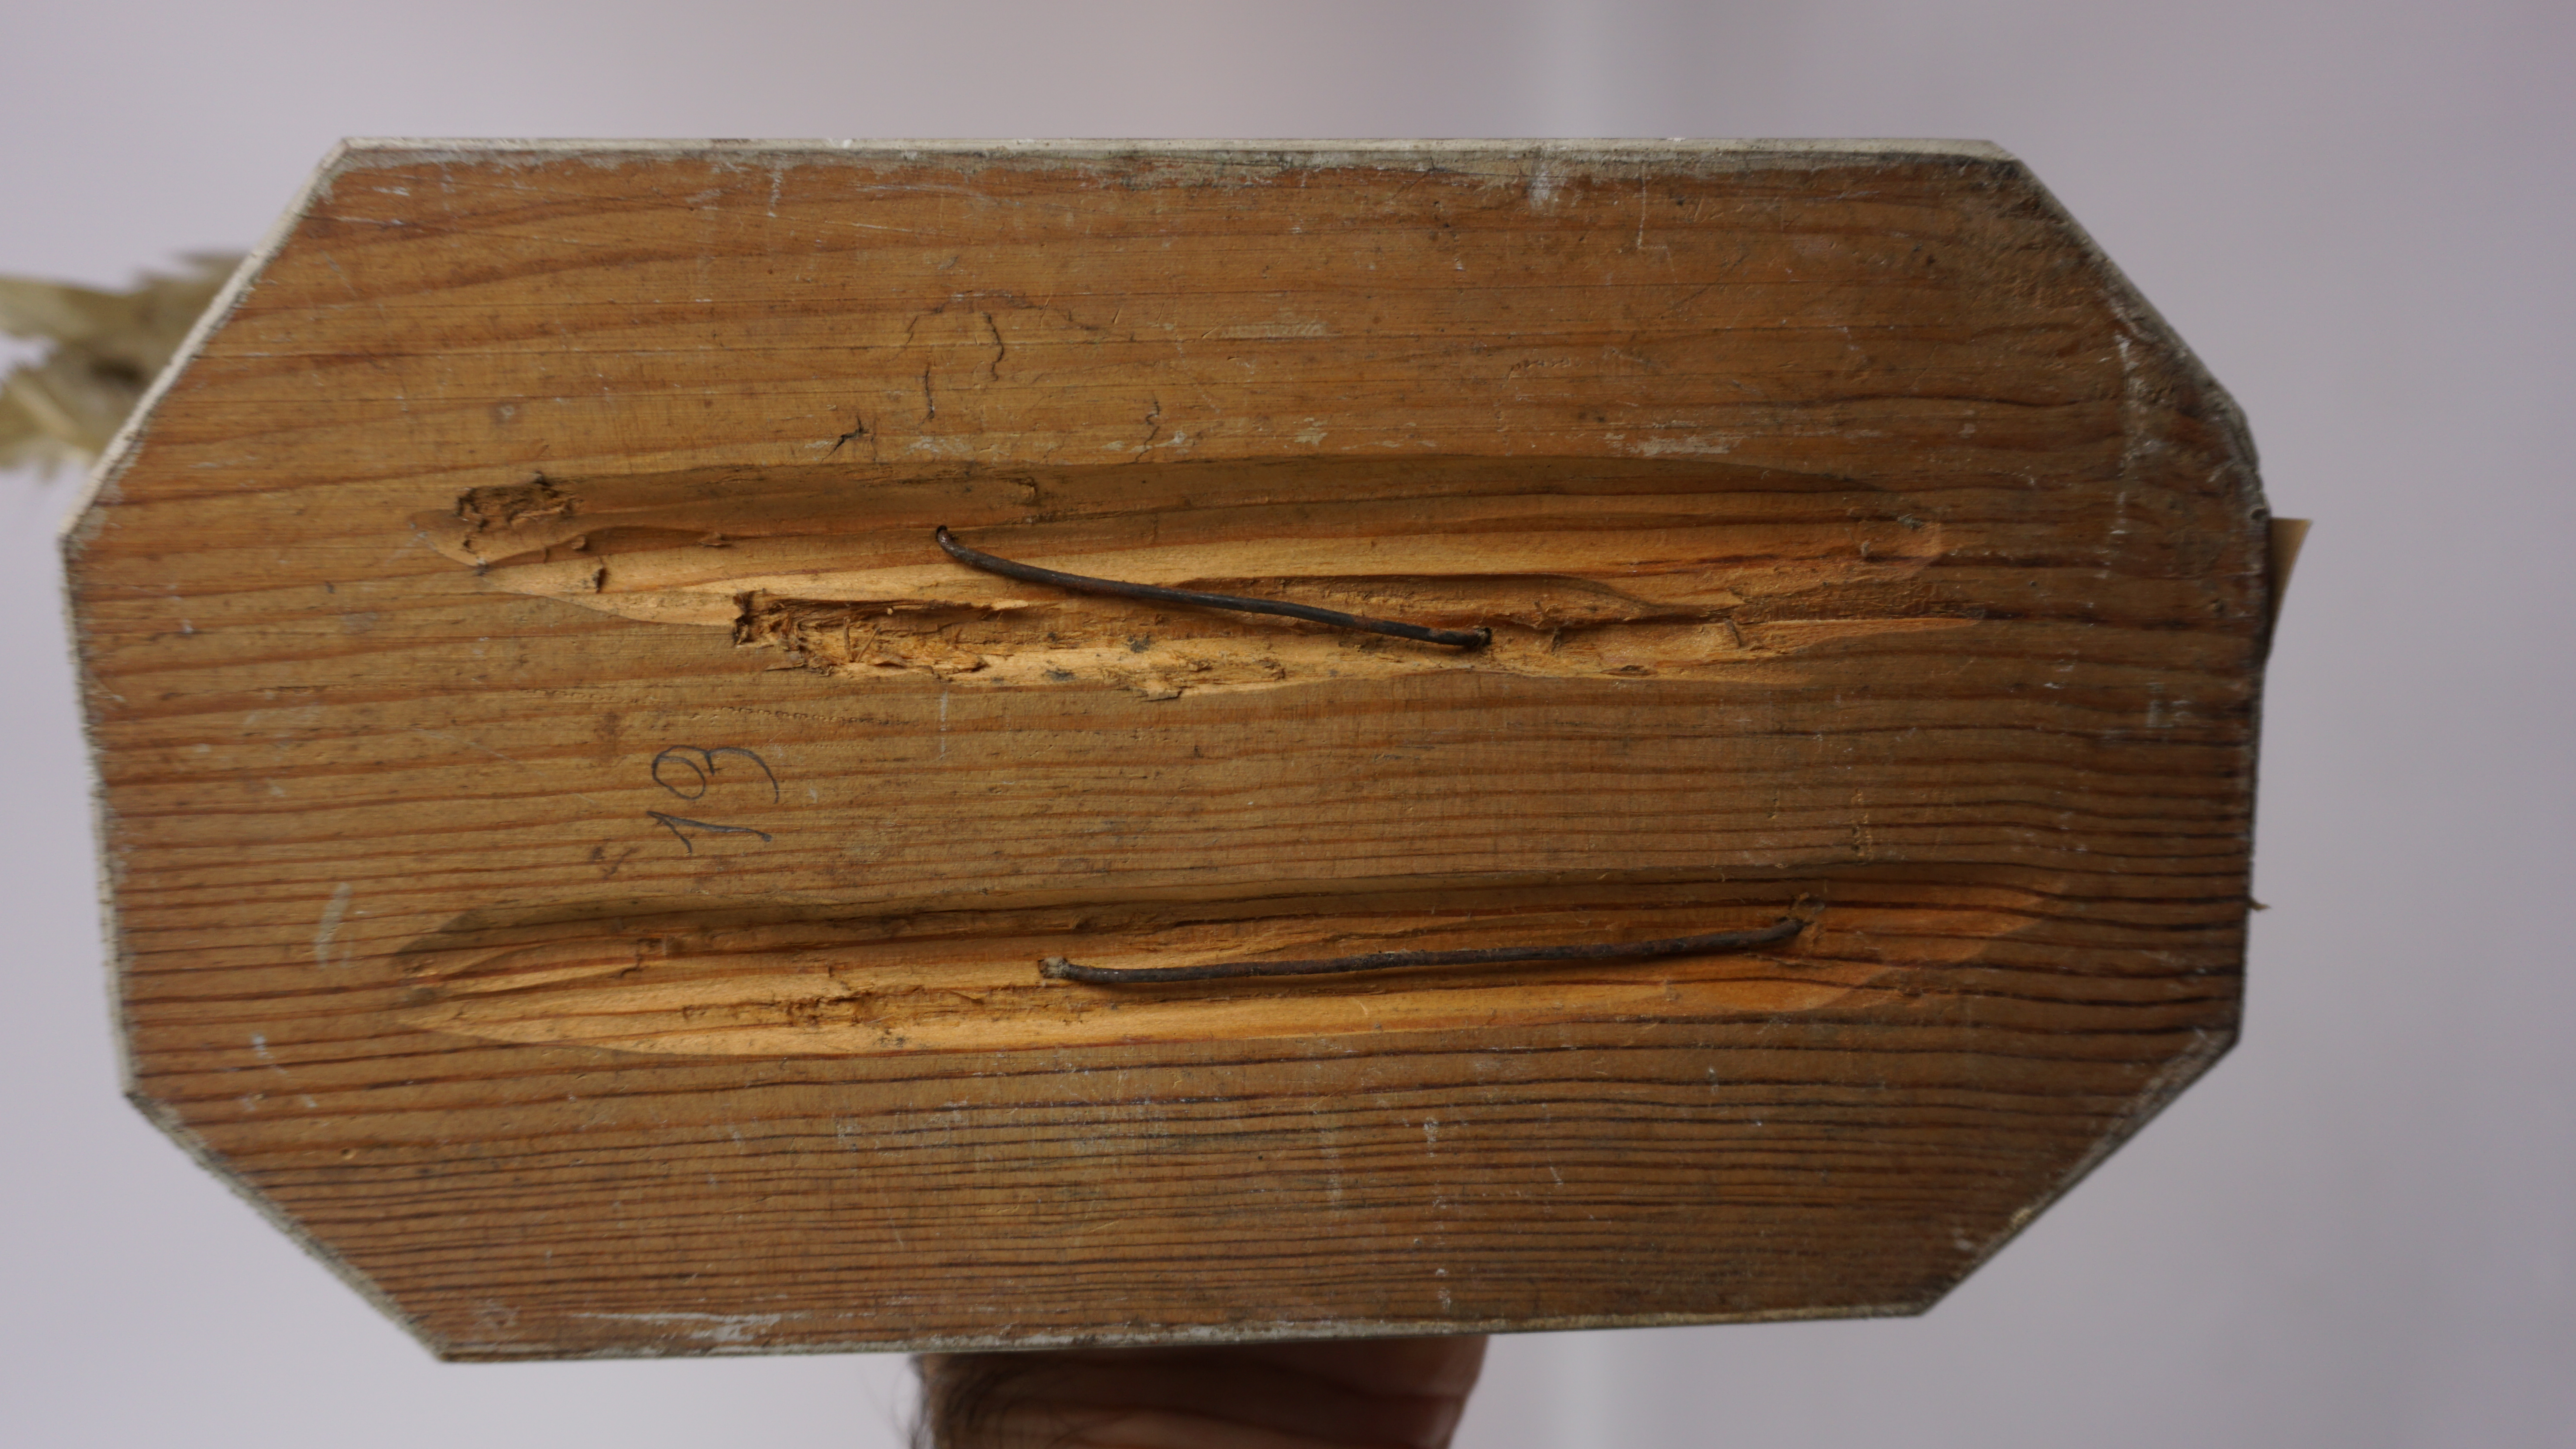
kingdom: Animalia
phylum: Chordata
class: Aves
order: Pelecaniformes
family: Ardeidae
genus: Bubulcus
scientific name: Bubulcus ibis
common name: Cattle egret
